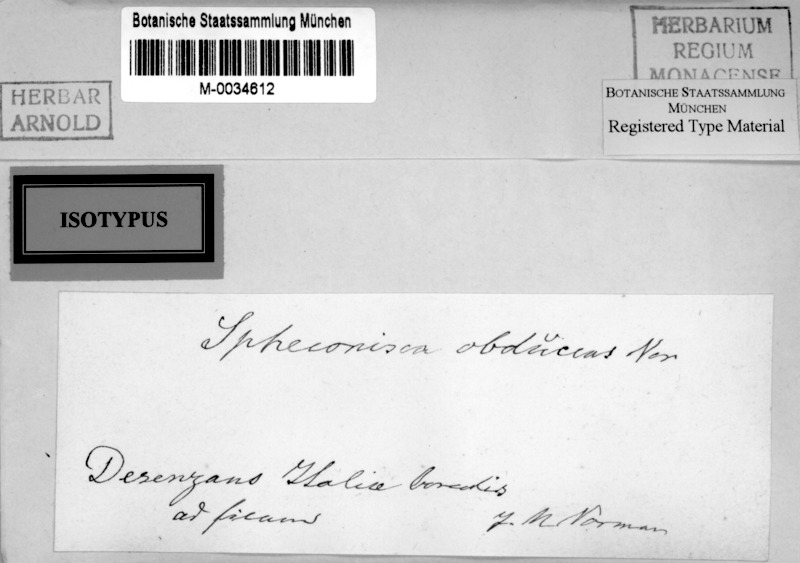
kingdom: Fungi
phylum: Ascomycota
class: Eurotiomycetes
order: Verrucariales
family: Verrucariaceae
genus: Spheconisca
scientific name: Spheconisca obducens
